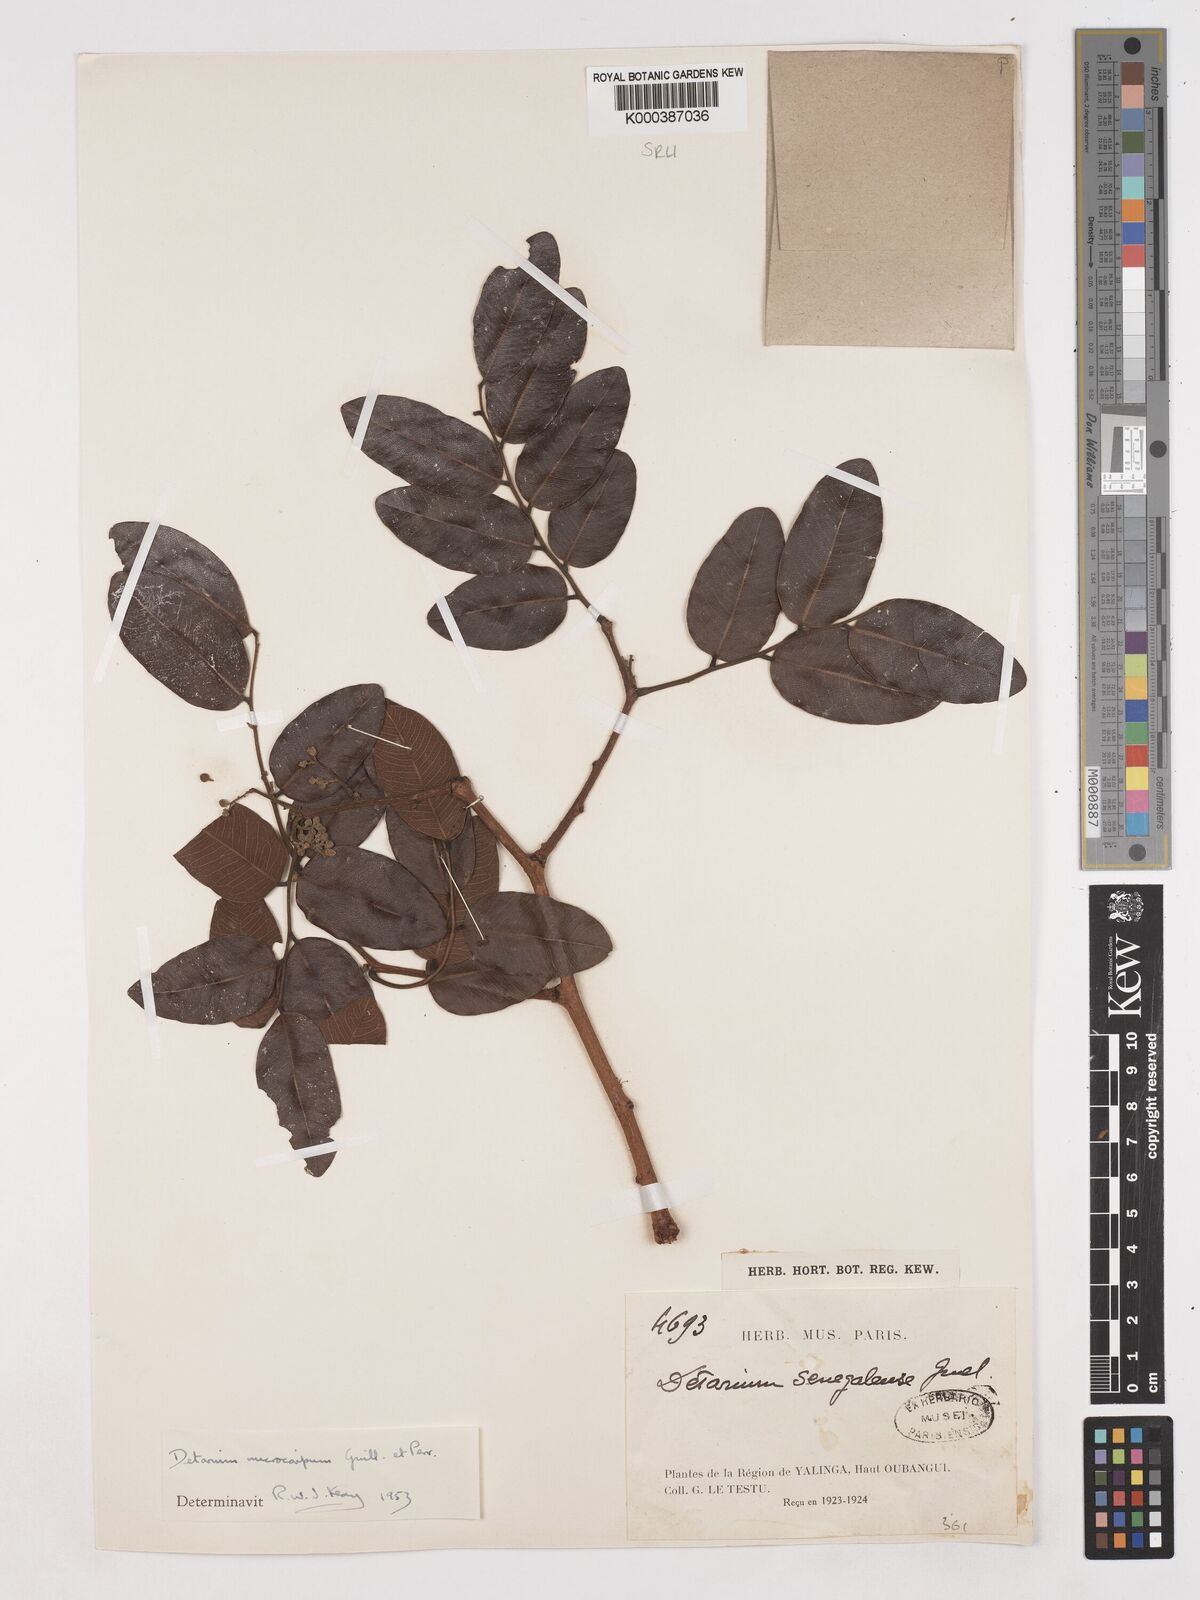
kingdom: Plantae
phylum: Tracheophyta
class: Magnoliopsida
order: Fabales
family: Fabaceae
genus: Detarium
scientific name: Detarium microcarpum
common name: Sweet dattock
